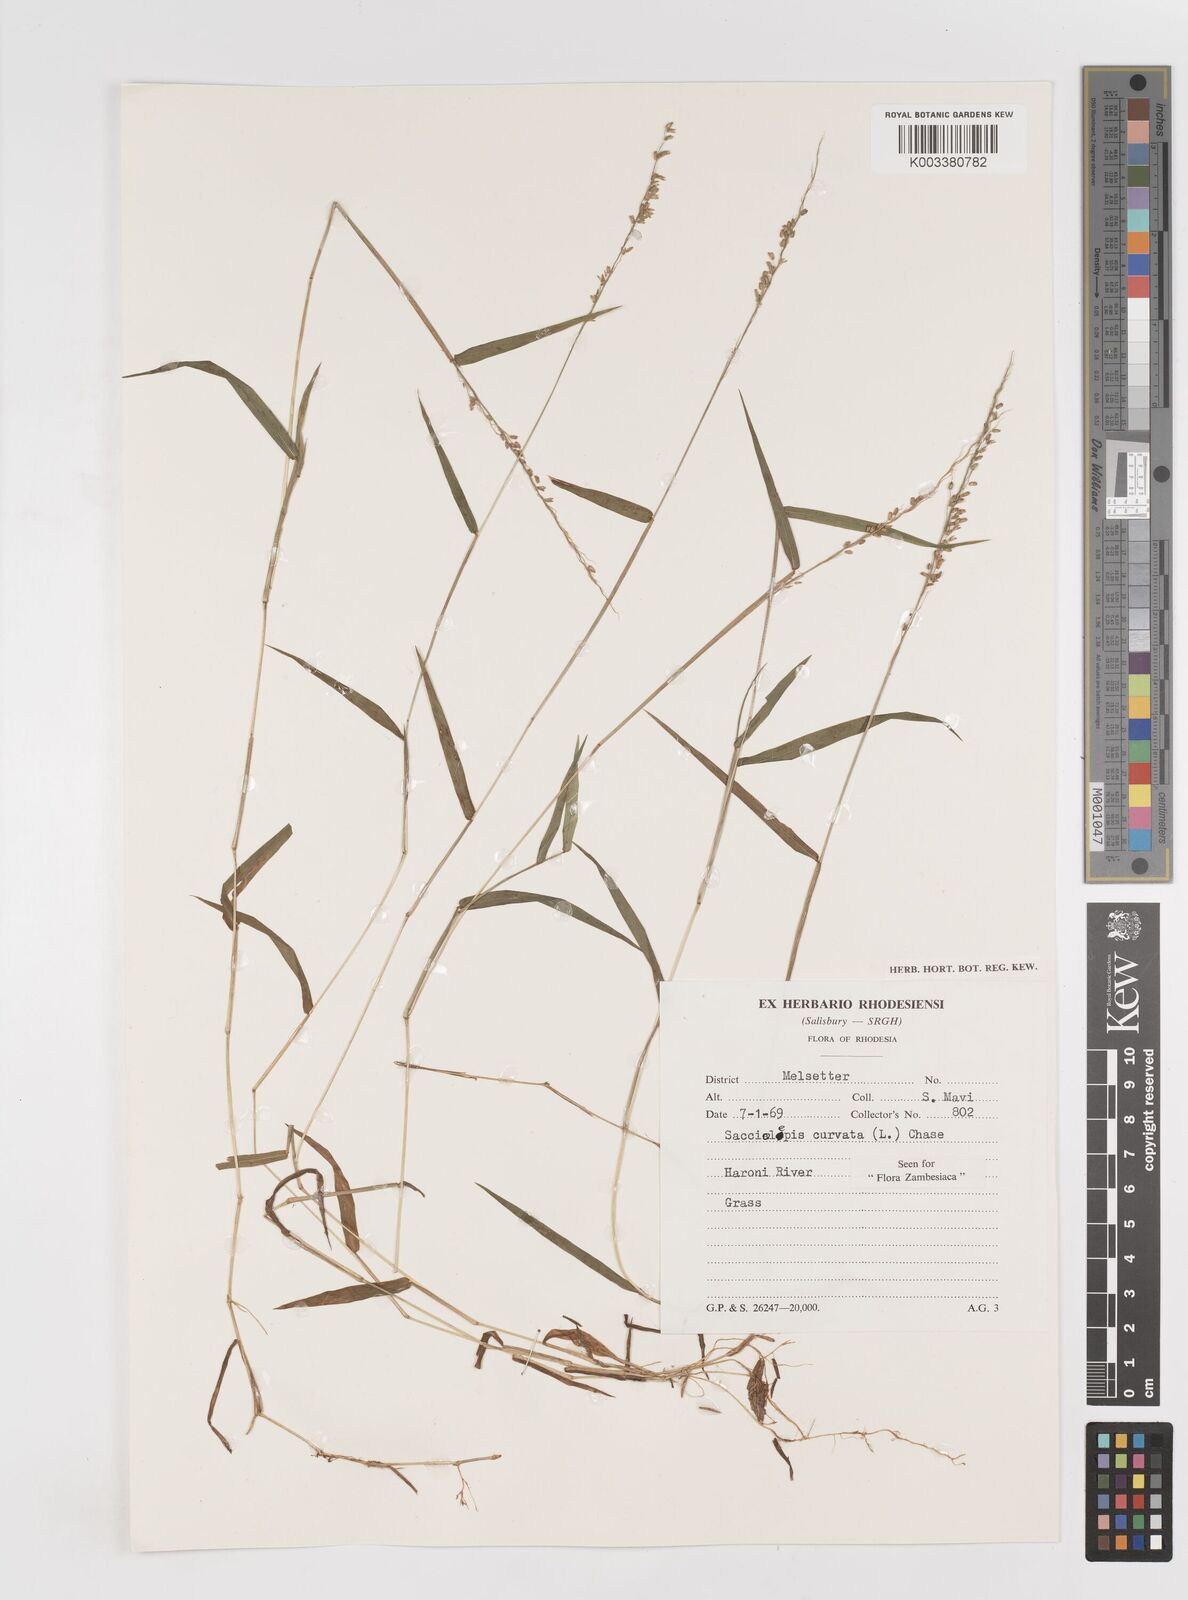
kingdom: Plantae
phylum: Tracheophyta
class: Liliopsida
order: Poales
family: Poaceae
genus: Sacciolepis
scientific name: Sacciolepis curvata
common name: Forest hood grass
